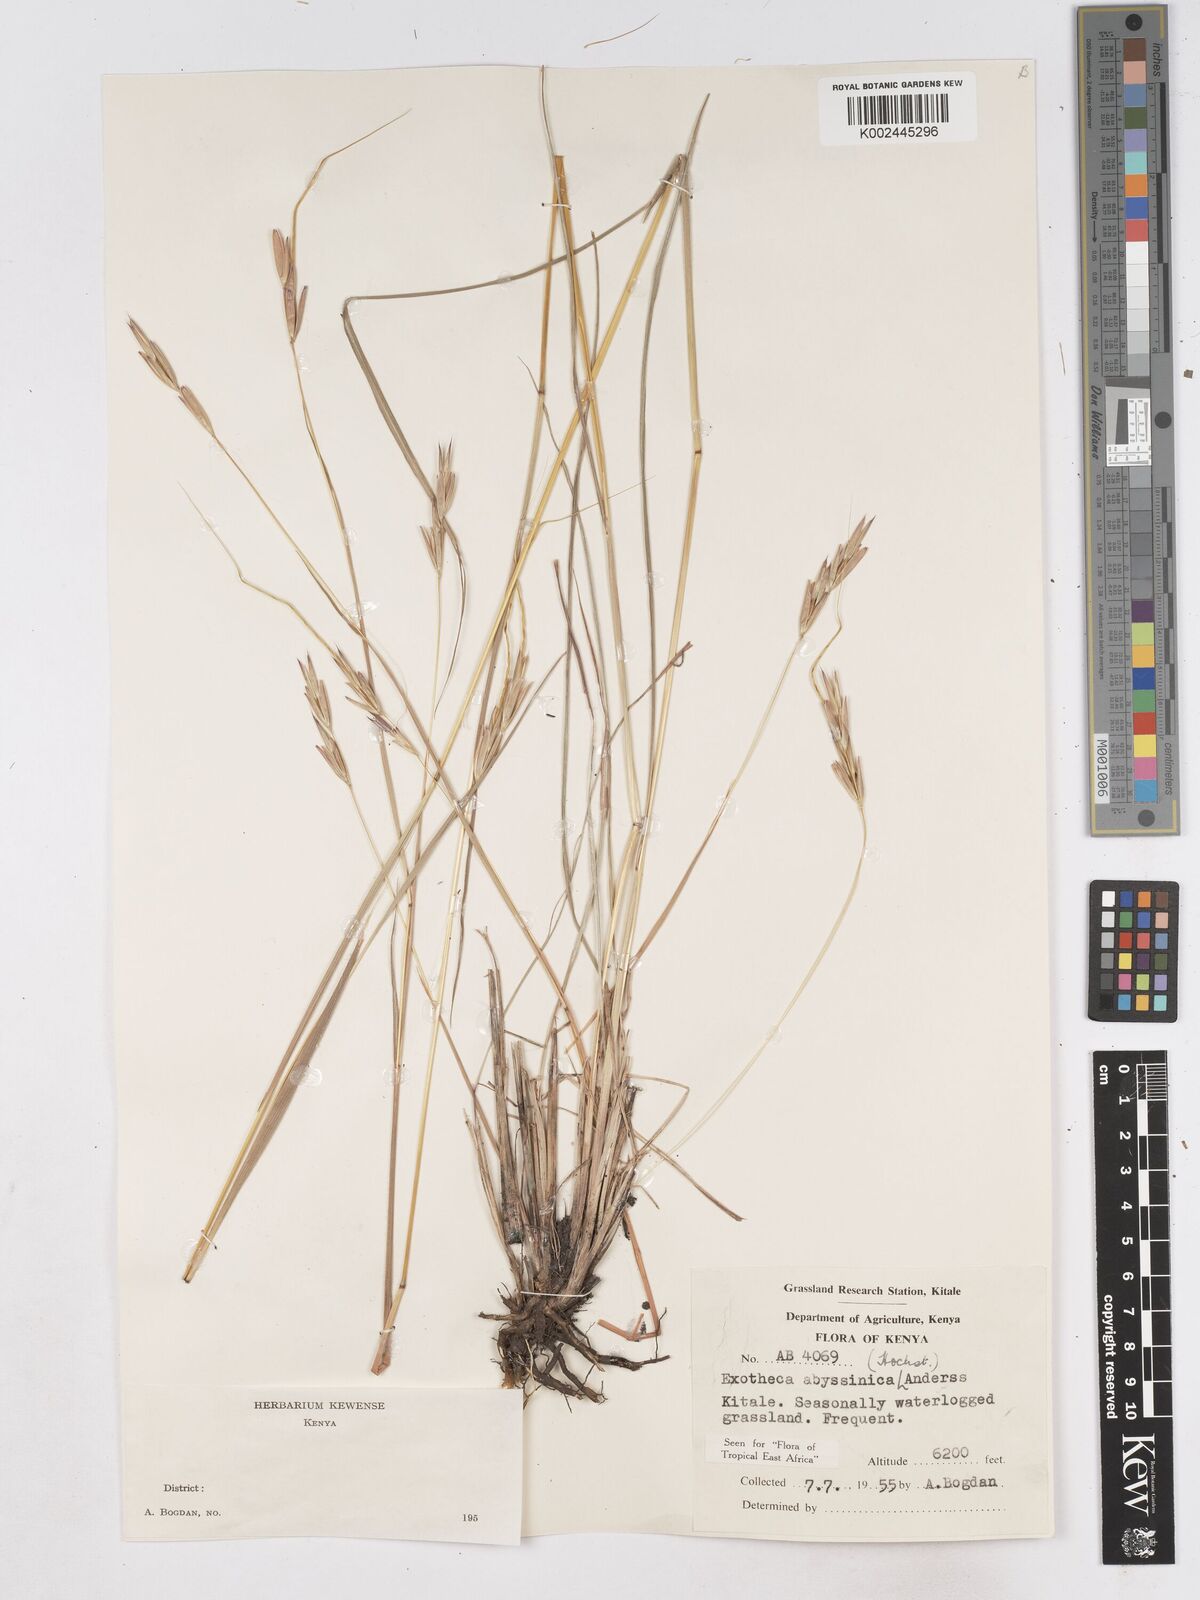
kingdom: Plantae
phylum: Tracheophyta
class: Liliopsida
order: Poales
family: Poaceae
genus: Exotheca
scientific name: Exotheca abyssinica
